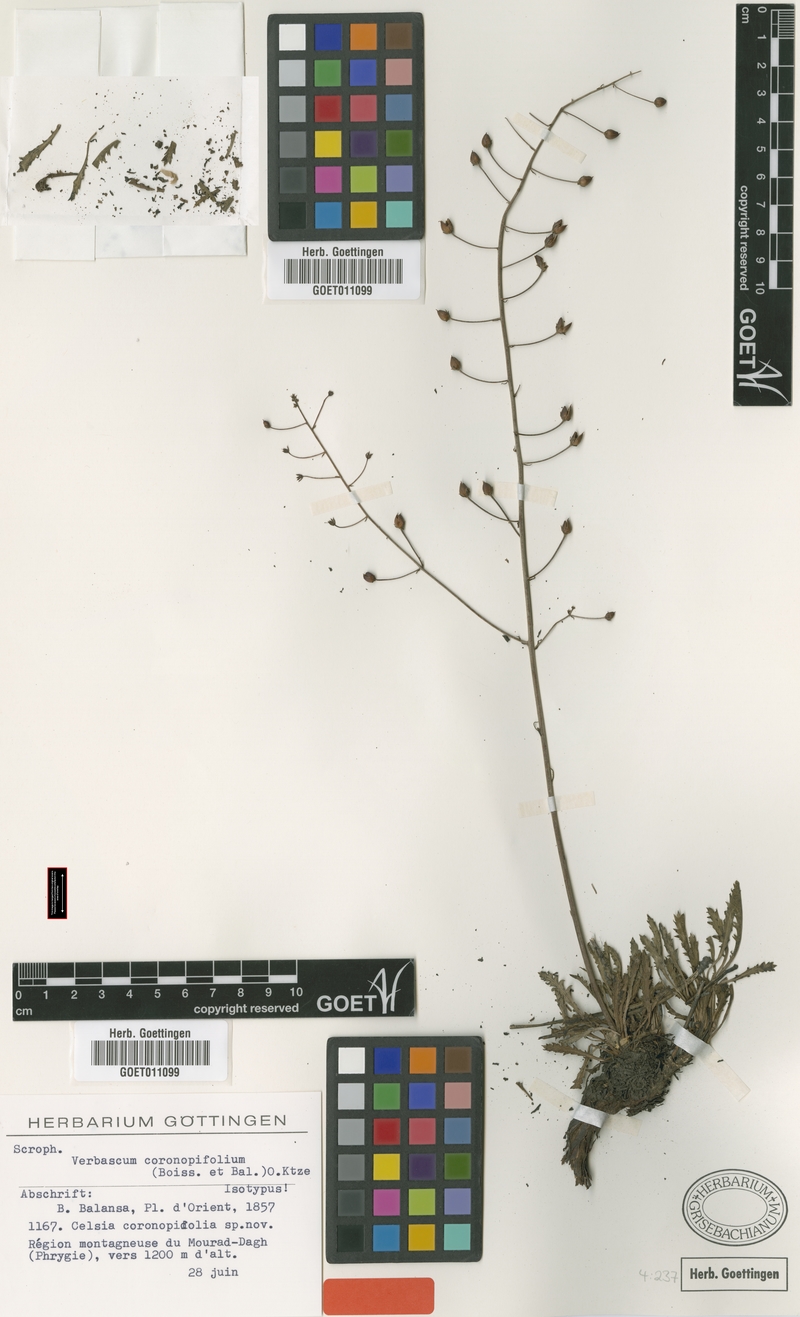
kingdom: Plantae
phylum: Tracheophyta
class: Magnoliopsida
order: Lamiales
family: Scrophulariaceae
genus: Verbascum
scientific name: Verbascum coronopifolium
